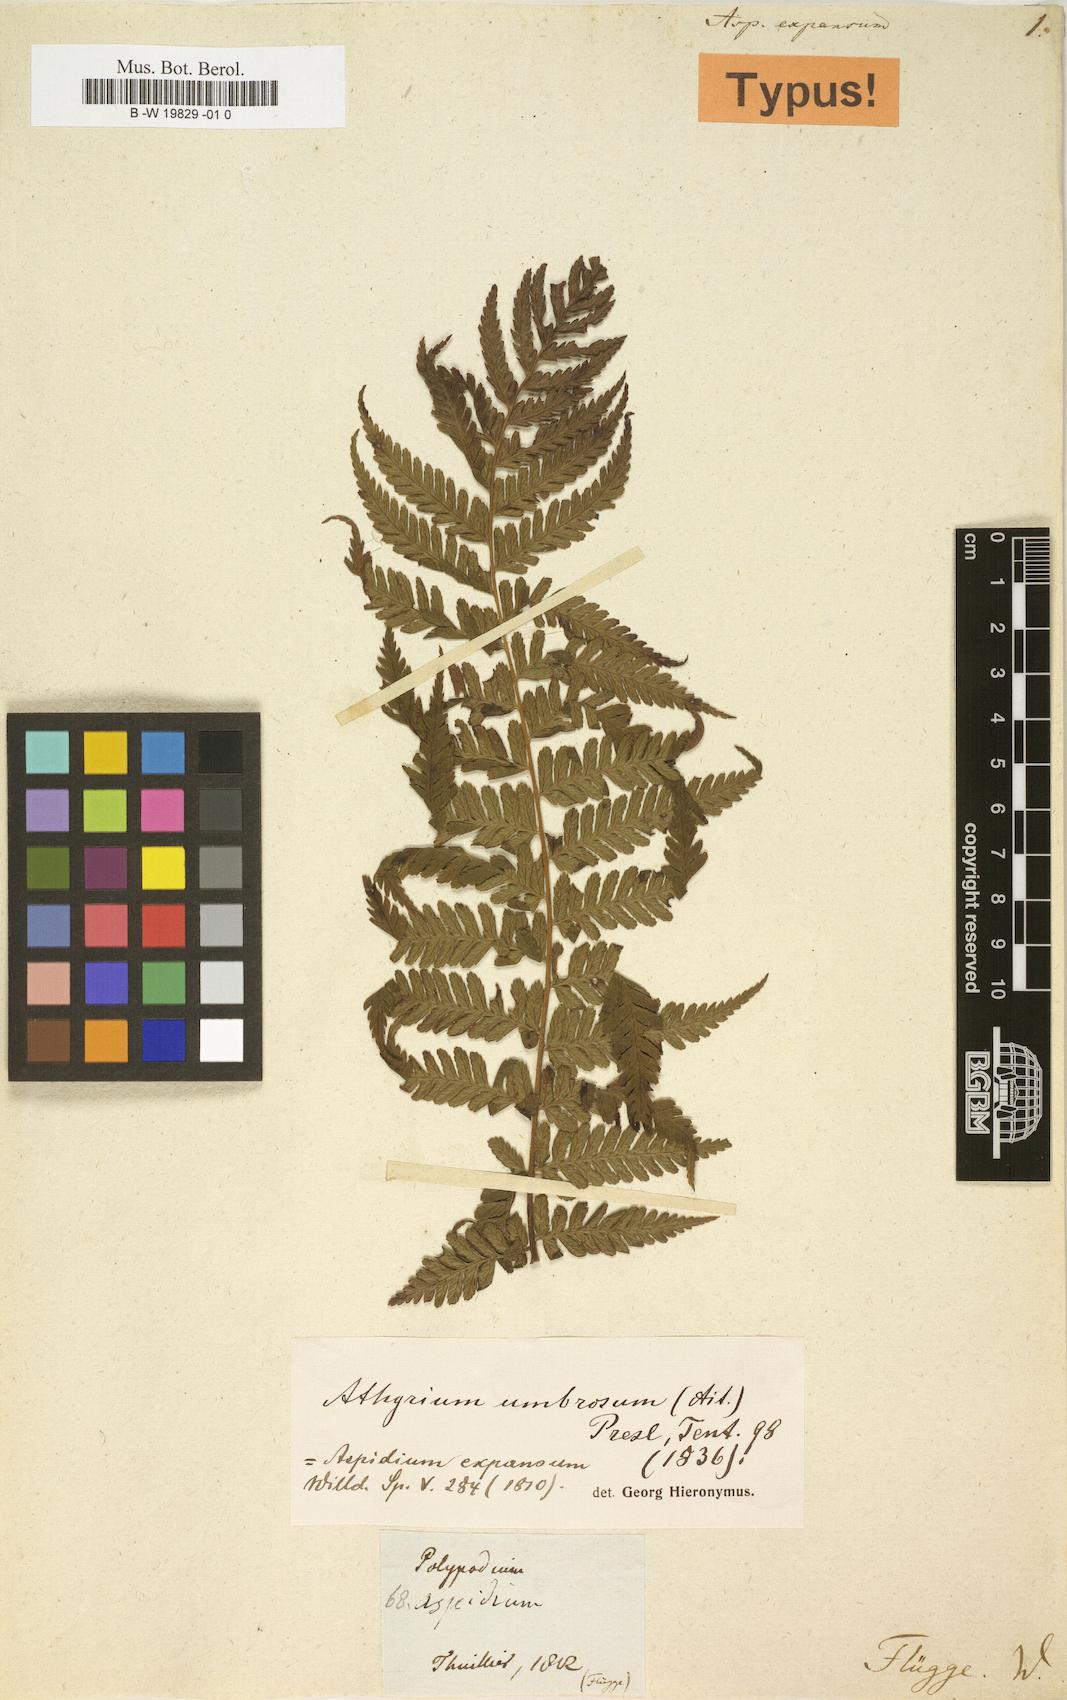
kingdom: Plantae
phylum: Tracheophyta
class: Polypodiopsida
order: Polypodiales
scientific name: Polypodiales
